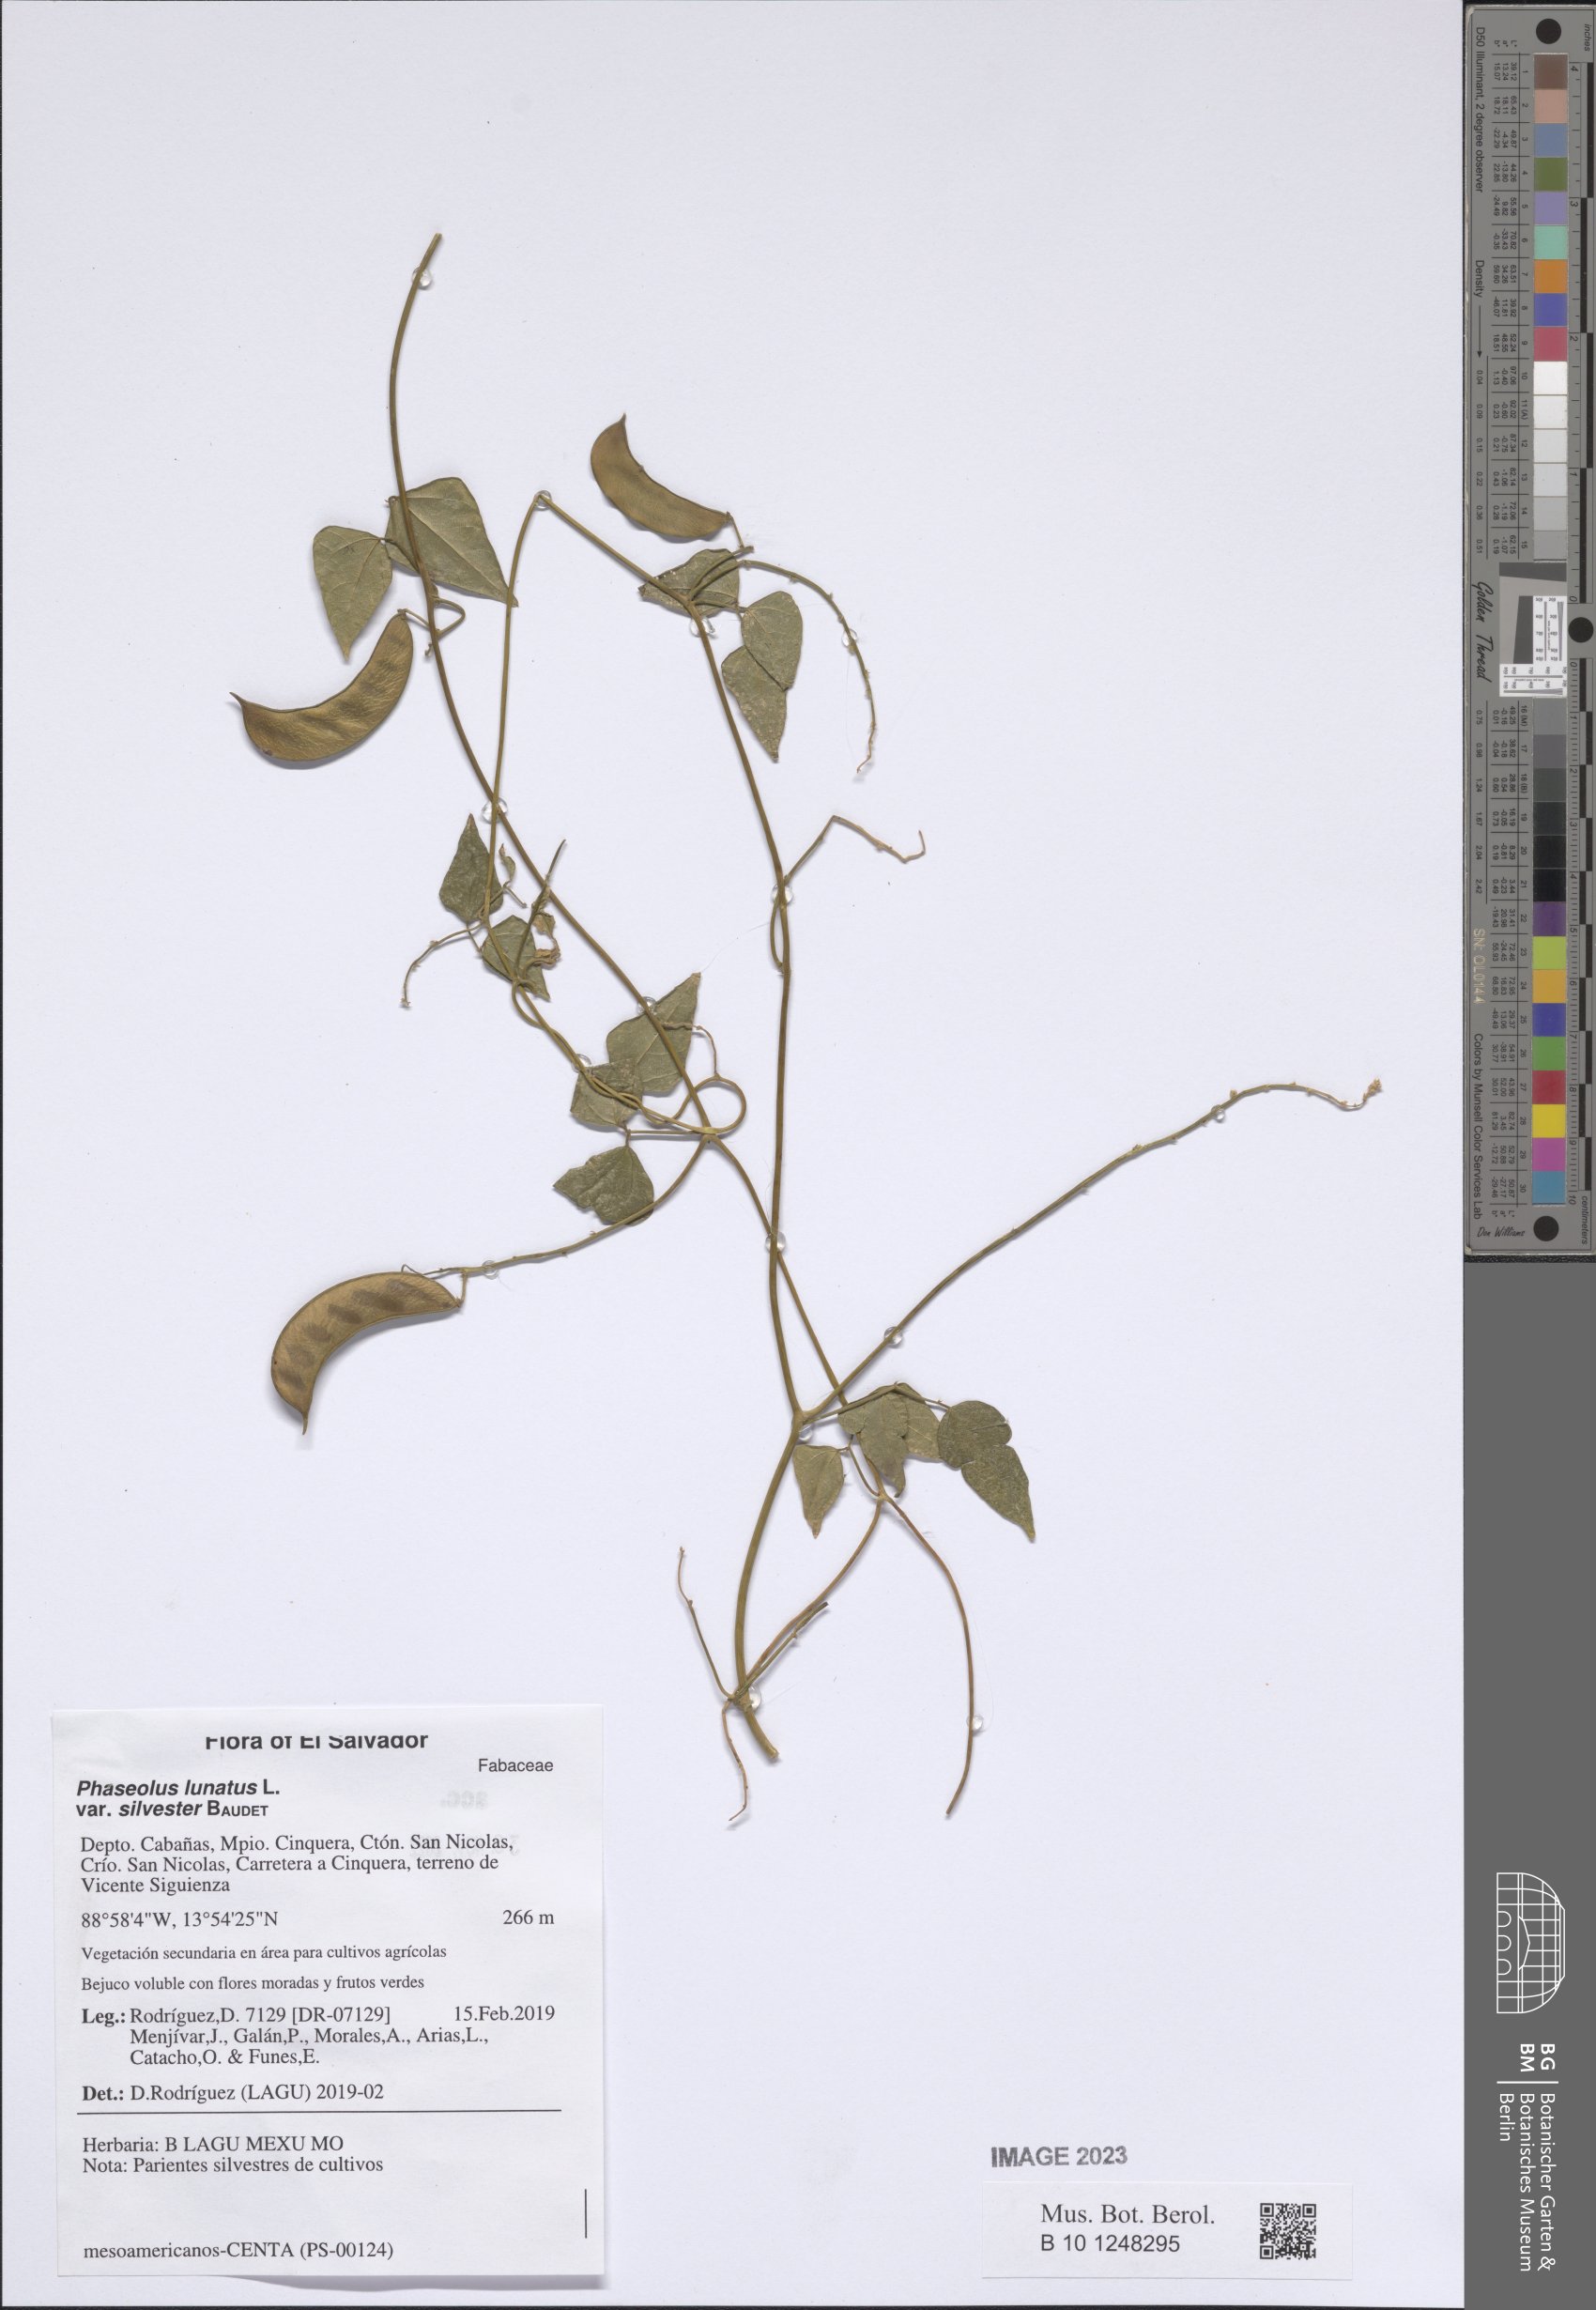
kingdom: Plantae
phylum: Tracheophyta
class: Magnoliopsida
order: Fabales
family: Fabaceae
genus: Phaseolus
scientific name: Phaseolus lunatus
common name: Sieva bean
